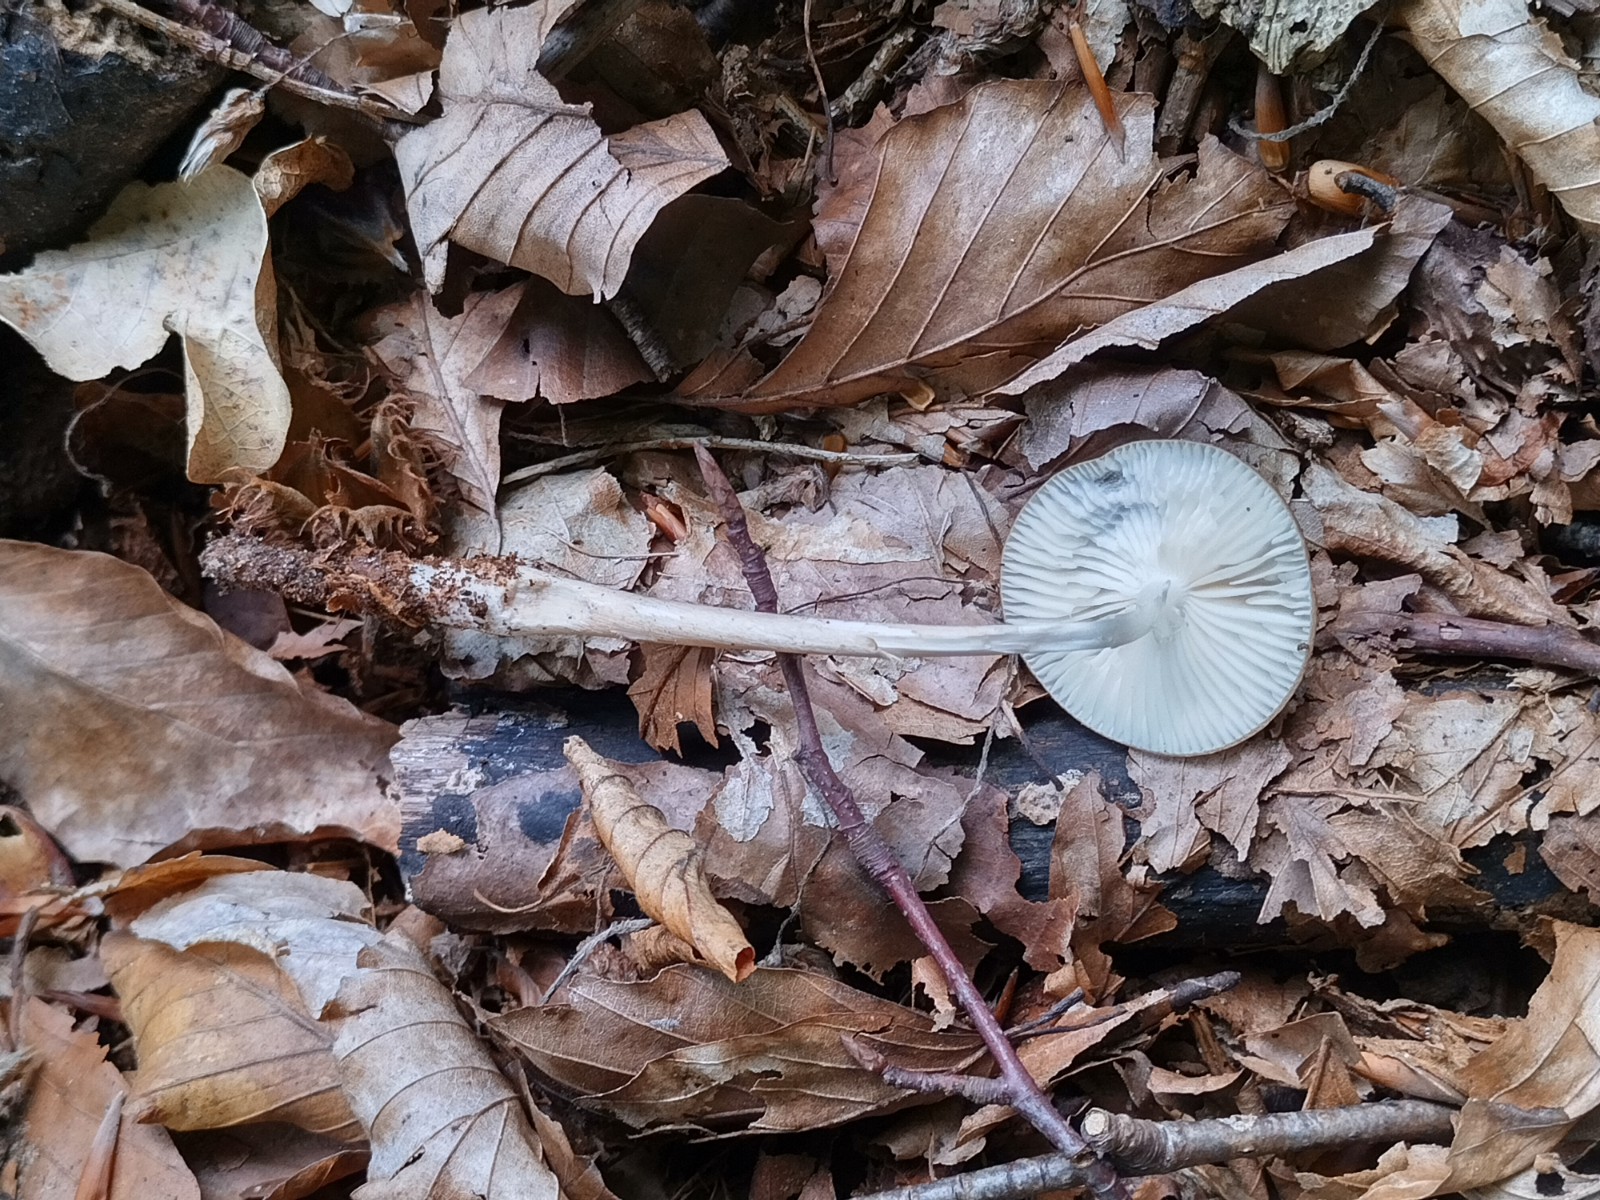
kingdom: Fungi
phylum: Basidiomycota
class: Agaricomycetes
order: Agaricales
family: Physalacriaceae
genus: Hymenopellis
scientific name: Hymenopellis radicata
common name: almindelig pælerodshat
